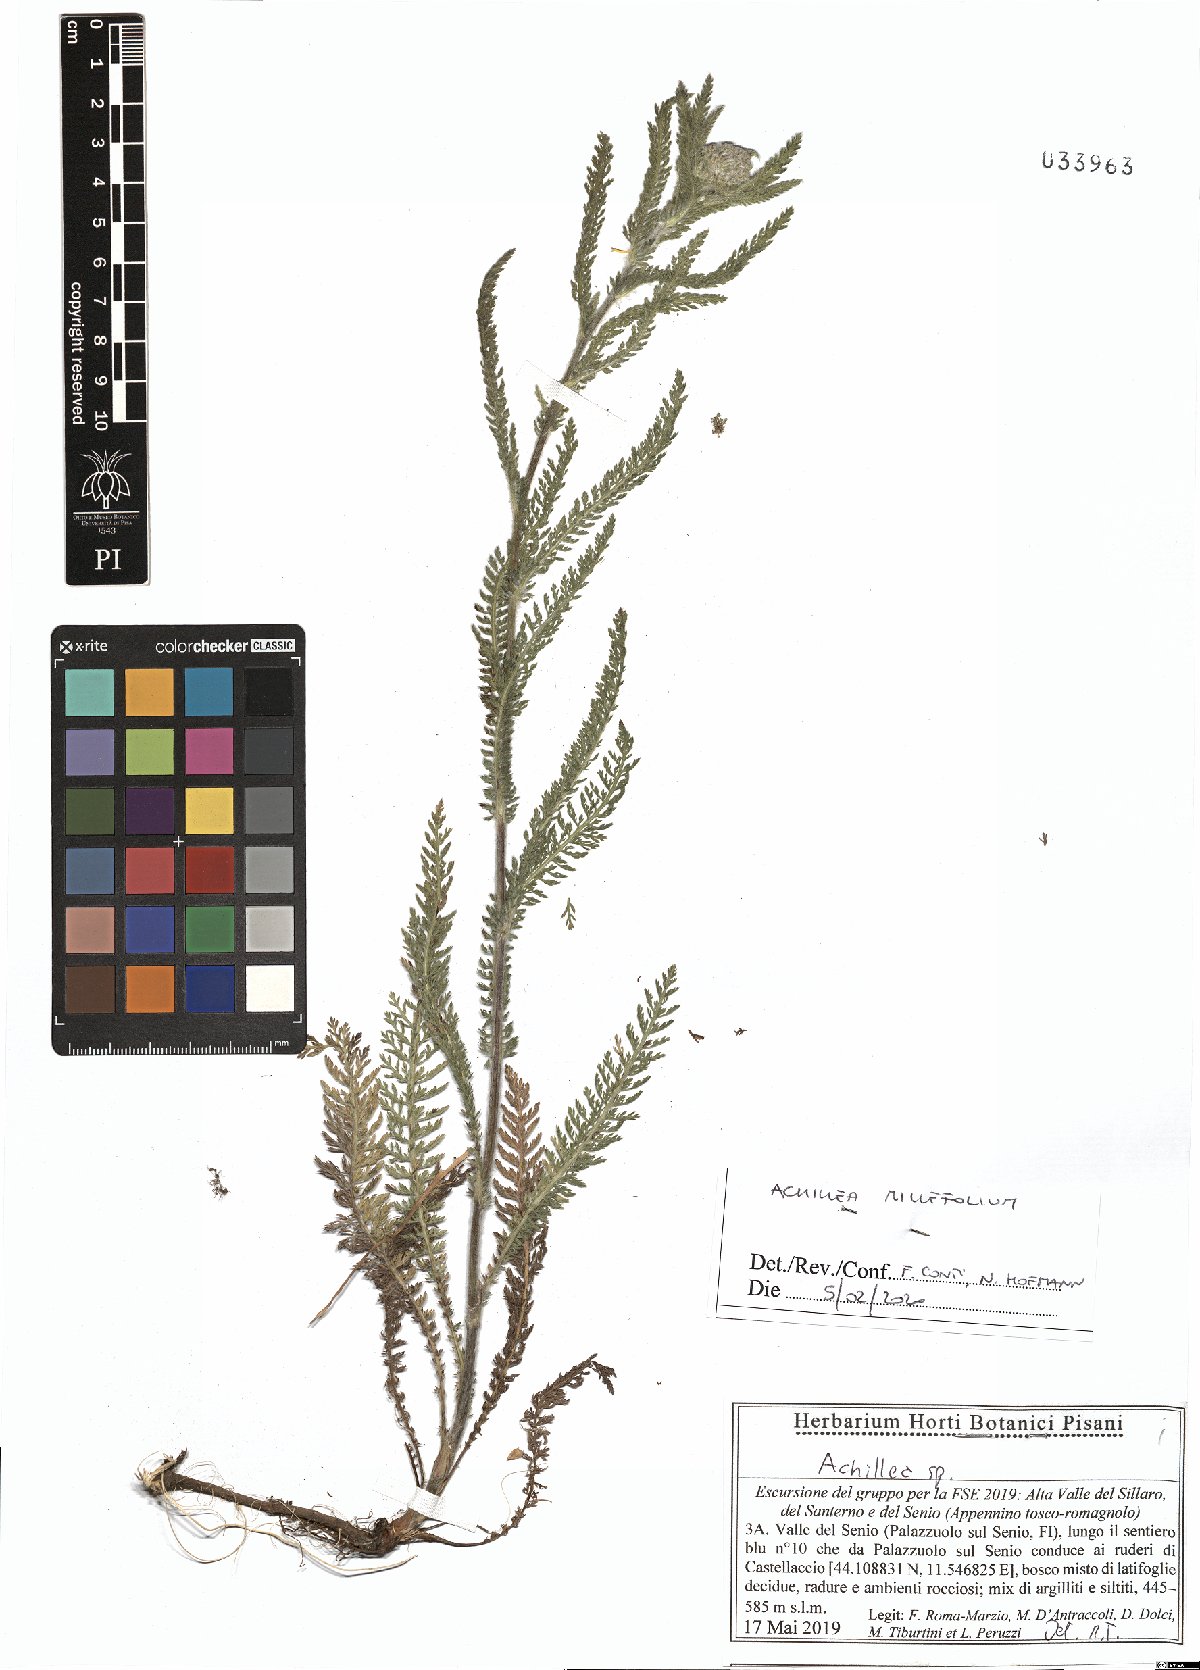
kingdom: Plantae
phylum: Tracheophyta
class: Magnoliopsida
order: Asterales
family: Asteraceae
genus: Achillea
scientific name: Achillea millefolium
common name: Yarrow
